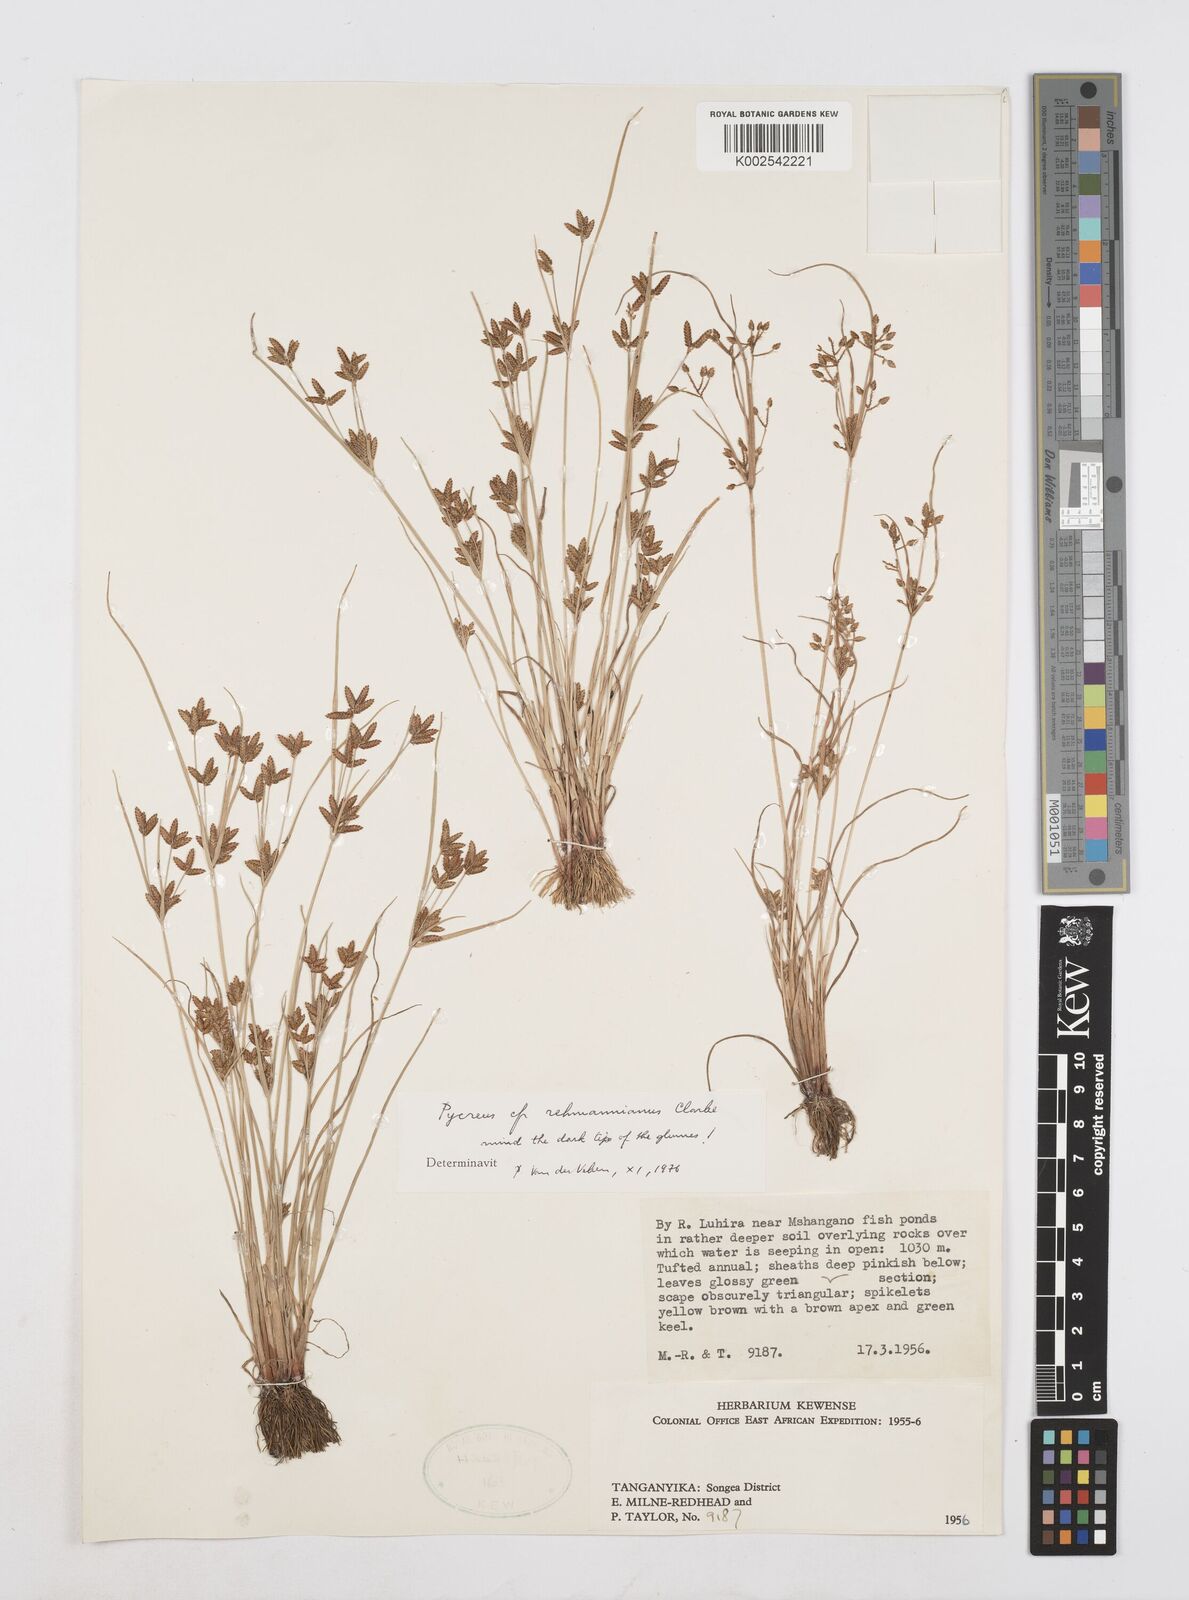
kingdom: Plantae
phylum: Tracheophyta
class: Liliopsida
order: Poales
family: Cyperaceae
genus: Cyperus
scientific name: Cyperus
